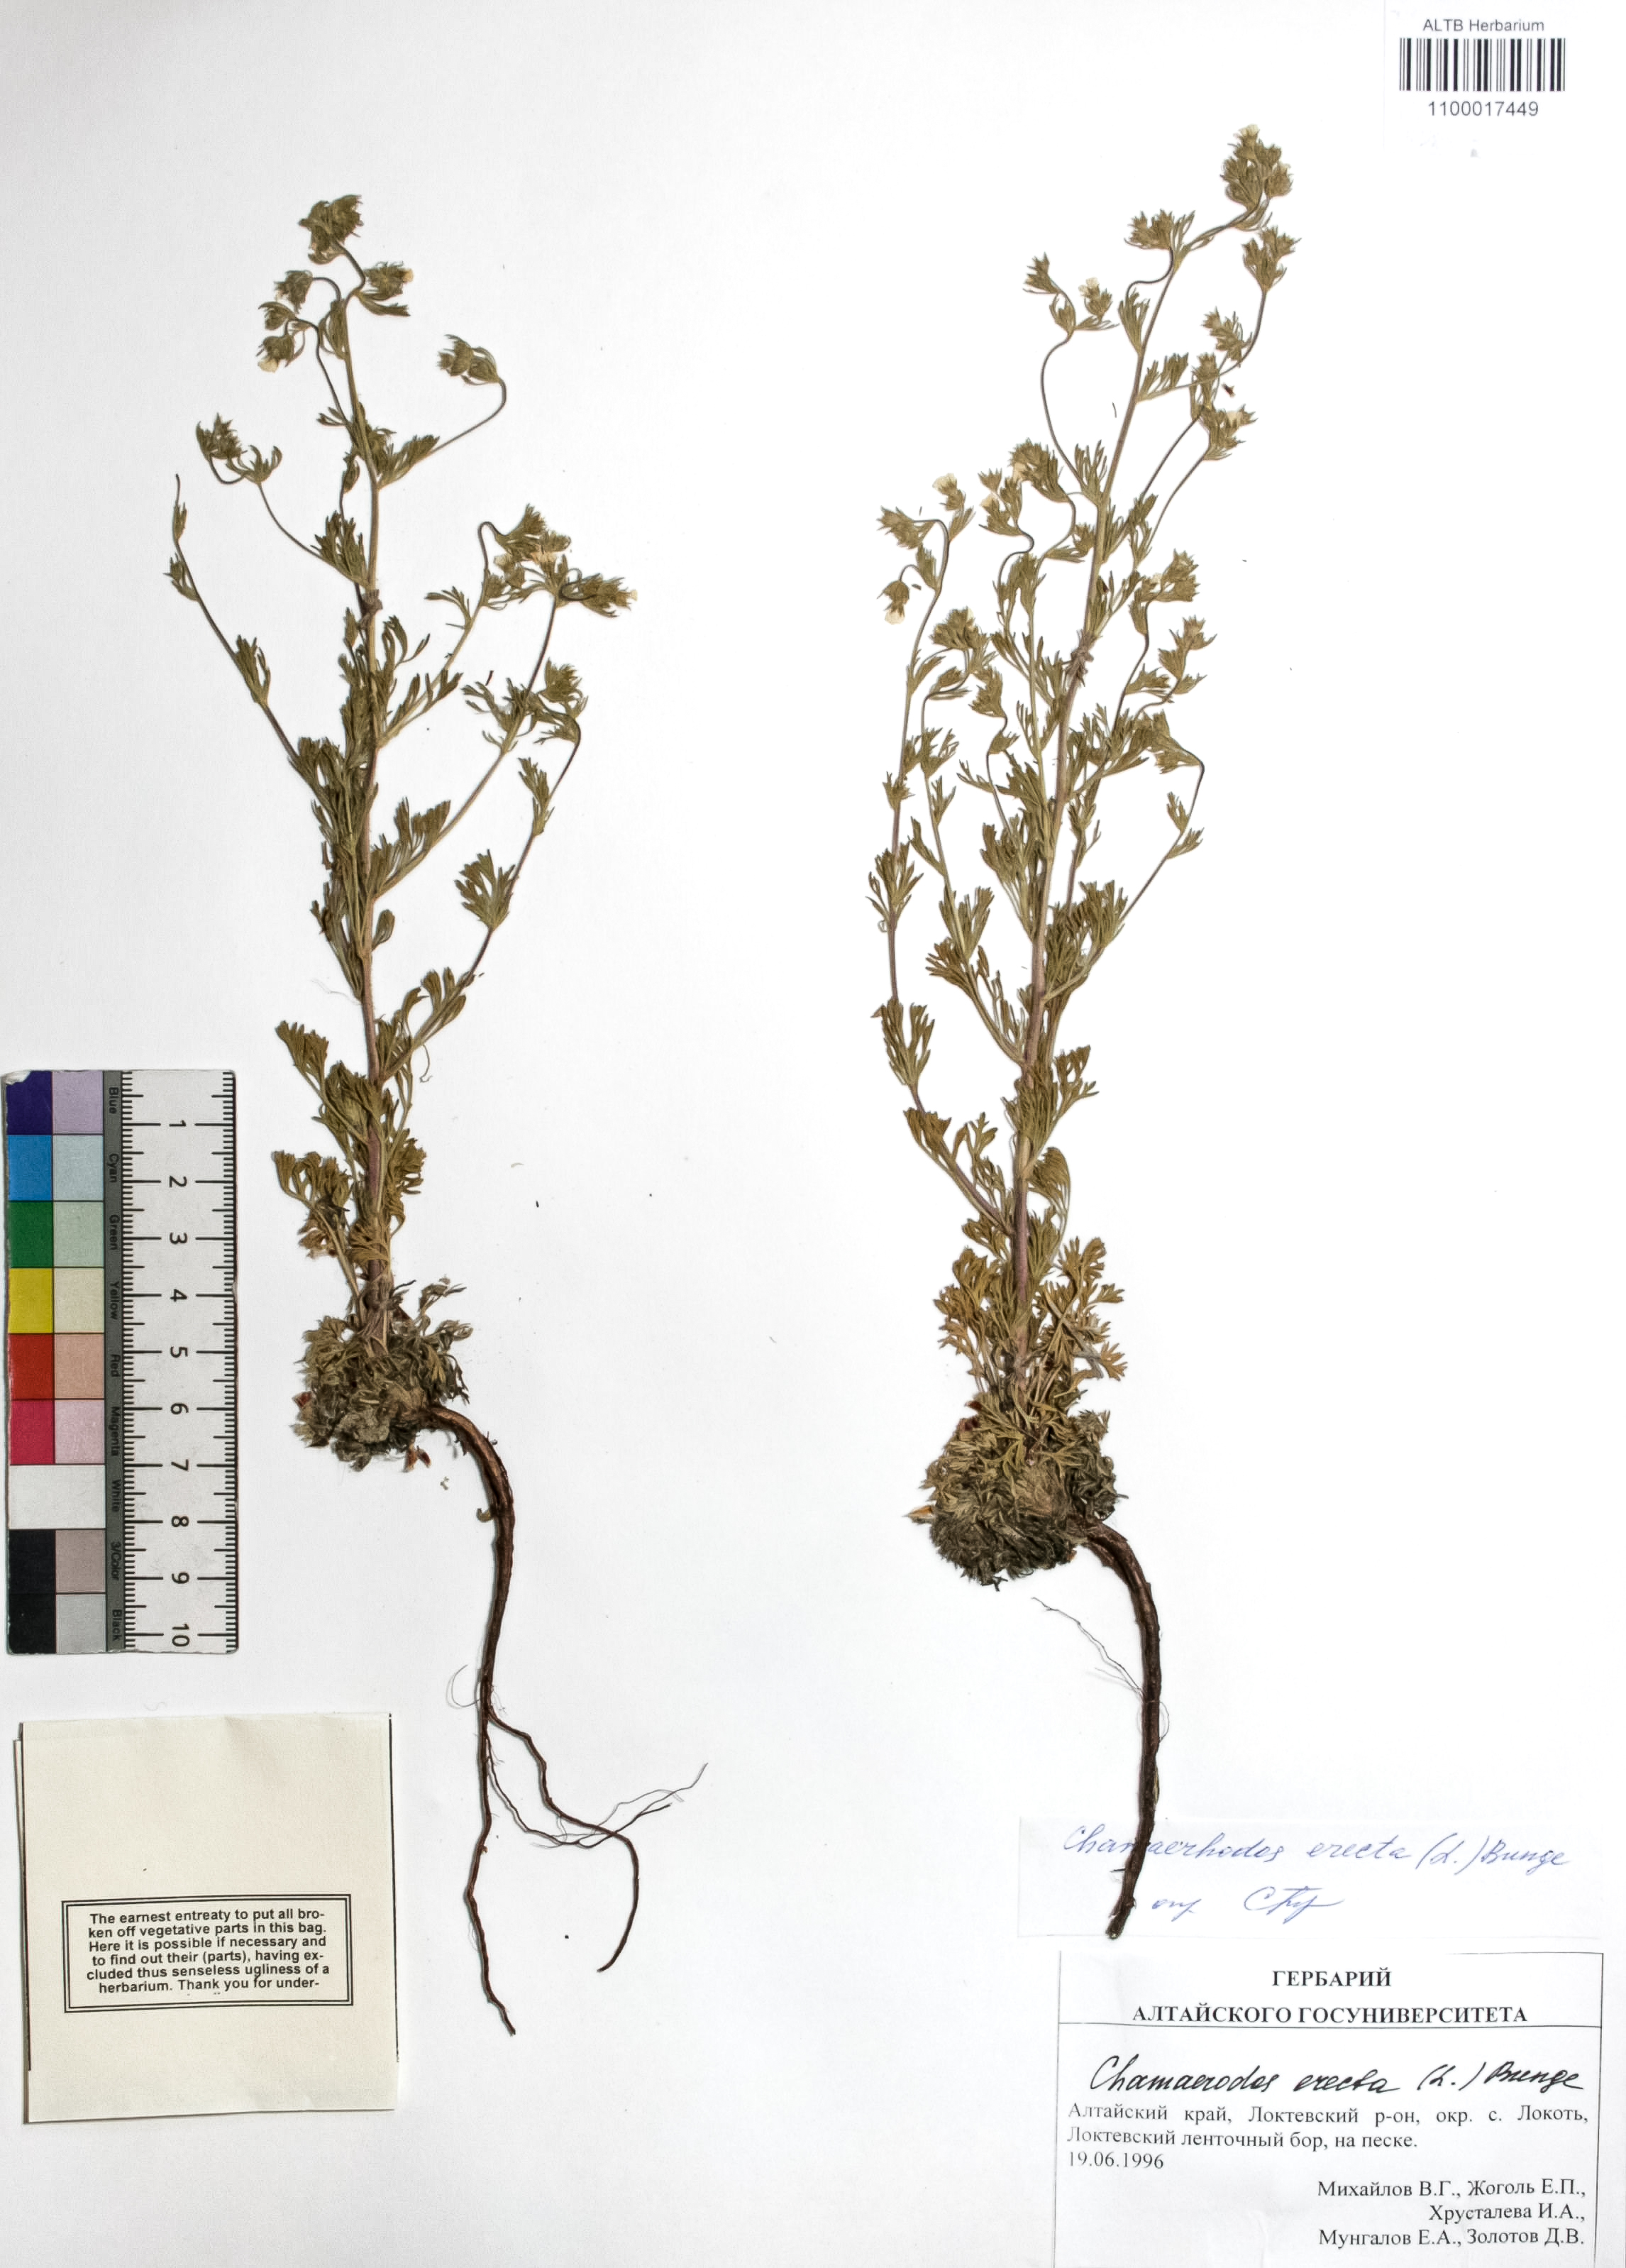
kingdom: Plantae
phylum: Tracheophyta
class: Magnoliopsida
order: Rosales
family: Rosaceae
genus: Chamaerhodos
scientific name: Chamaerhodos erecta
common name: American chamaerhodos
